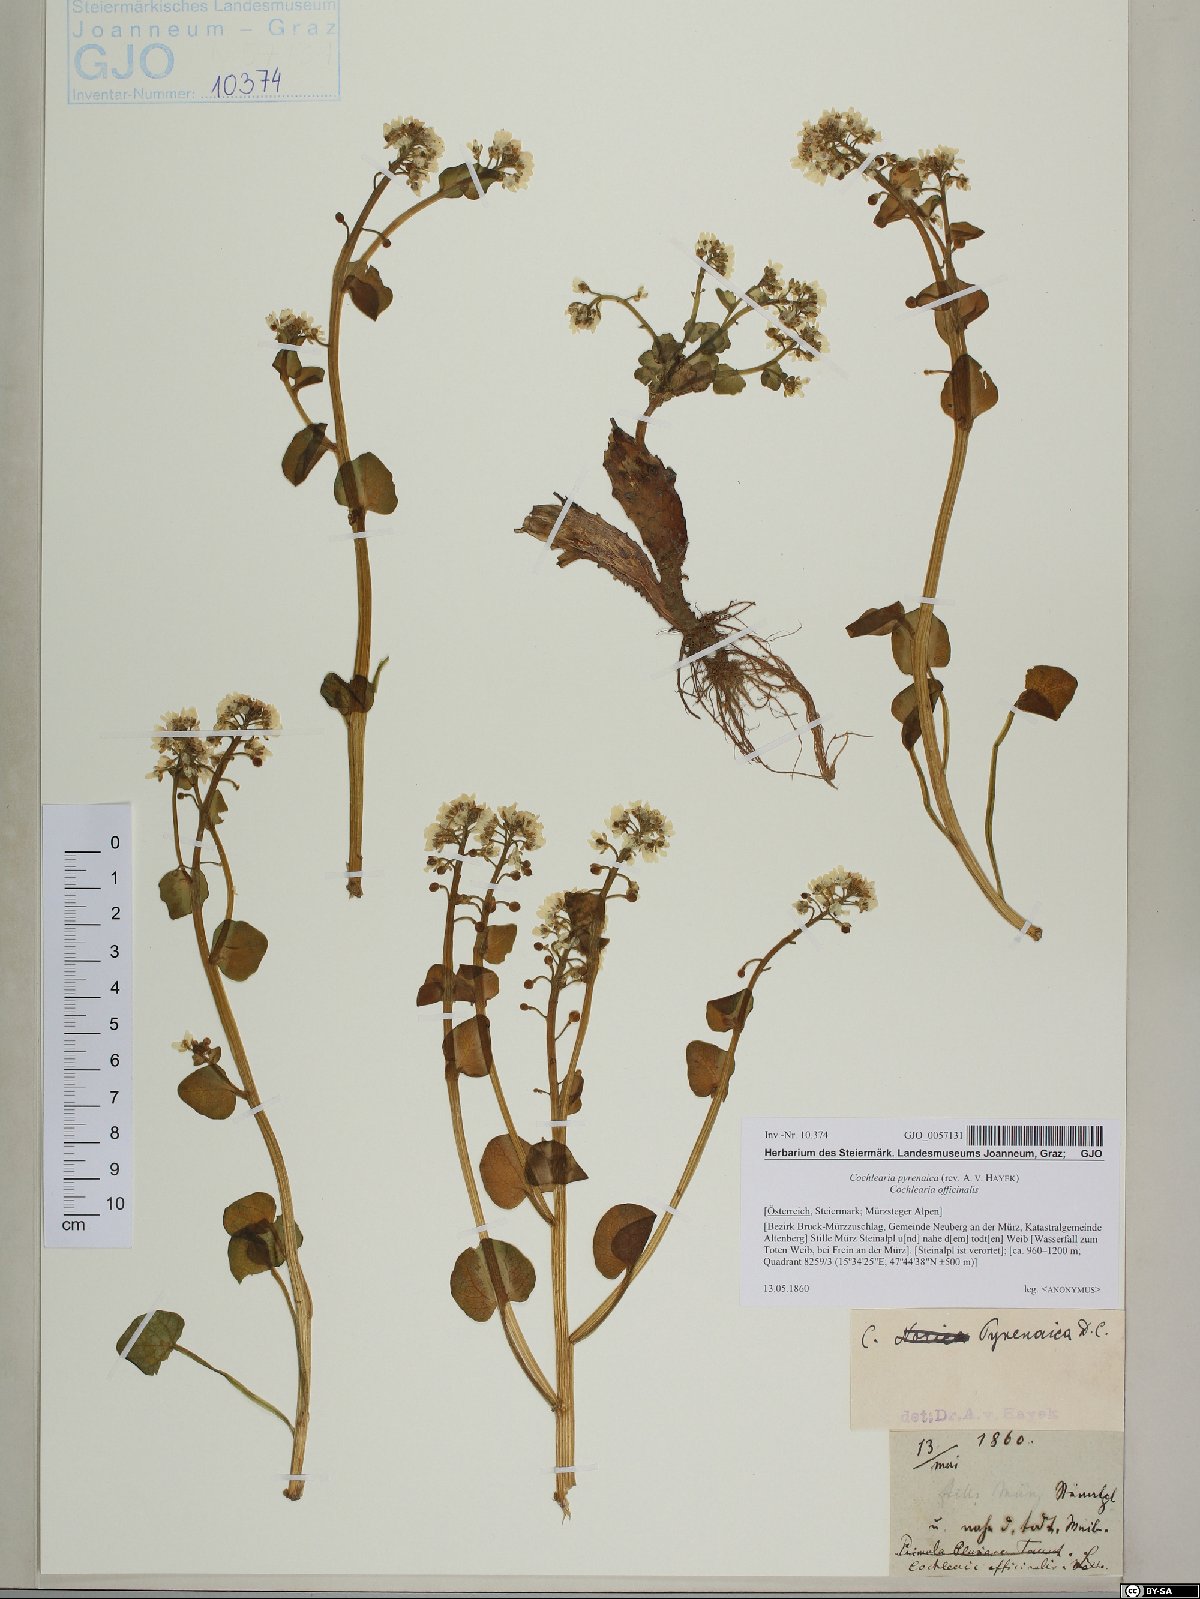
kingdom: Plantae
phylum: Tracheophyta
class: Magnoliopsida
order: Brassicales
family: Brassicaceae
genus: Cochlearia
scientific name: Cochlearia pyrenaica
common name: Upland scurvy-grass
